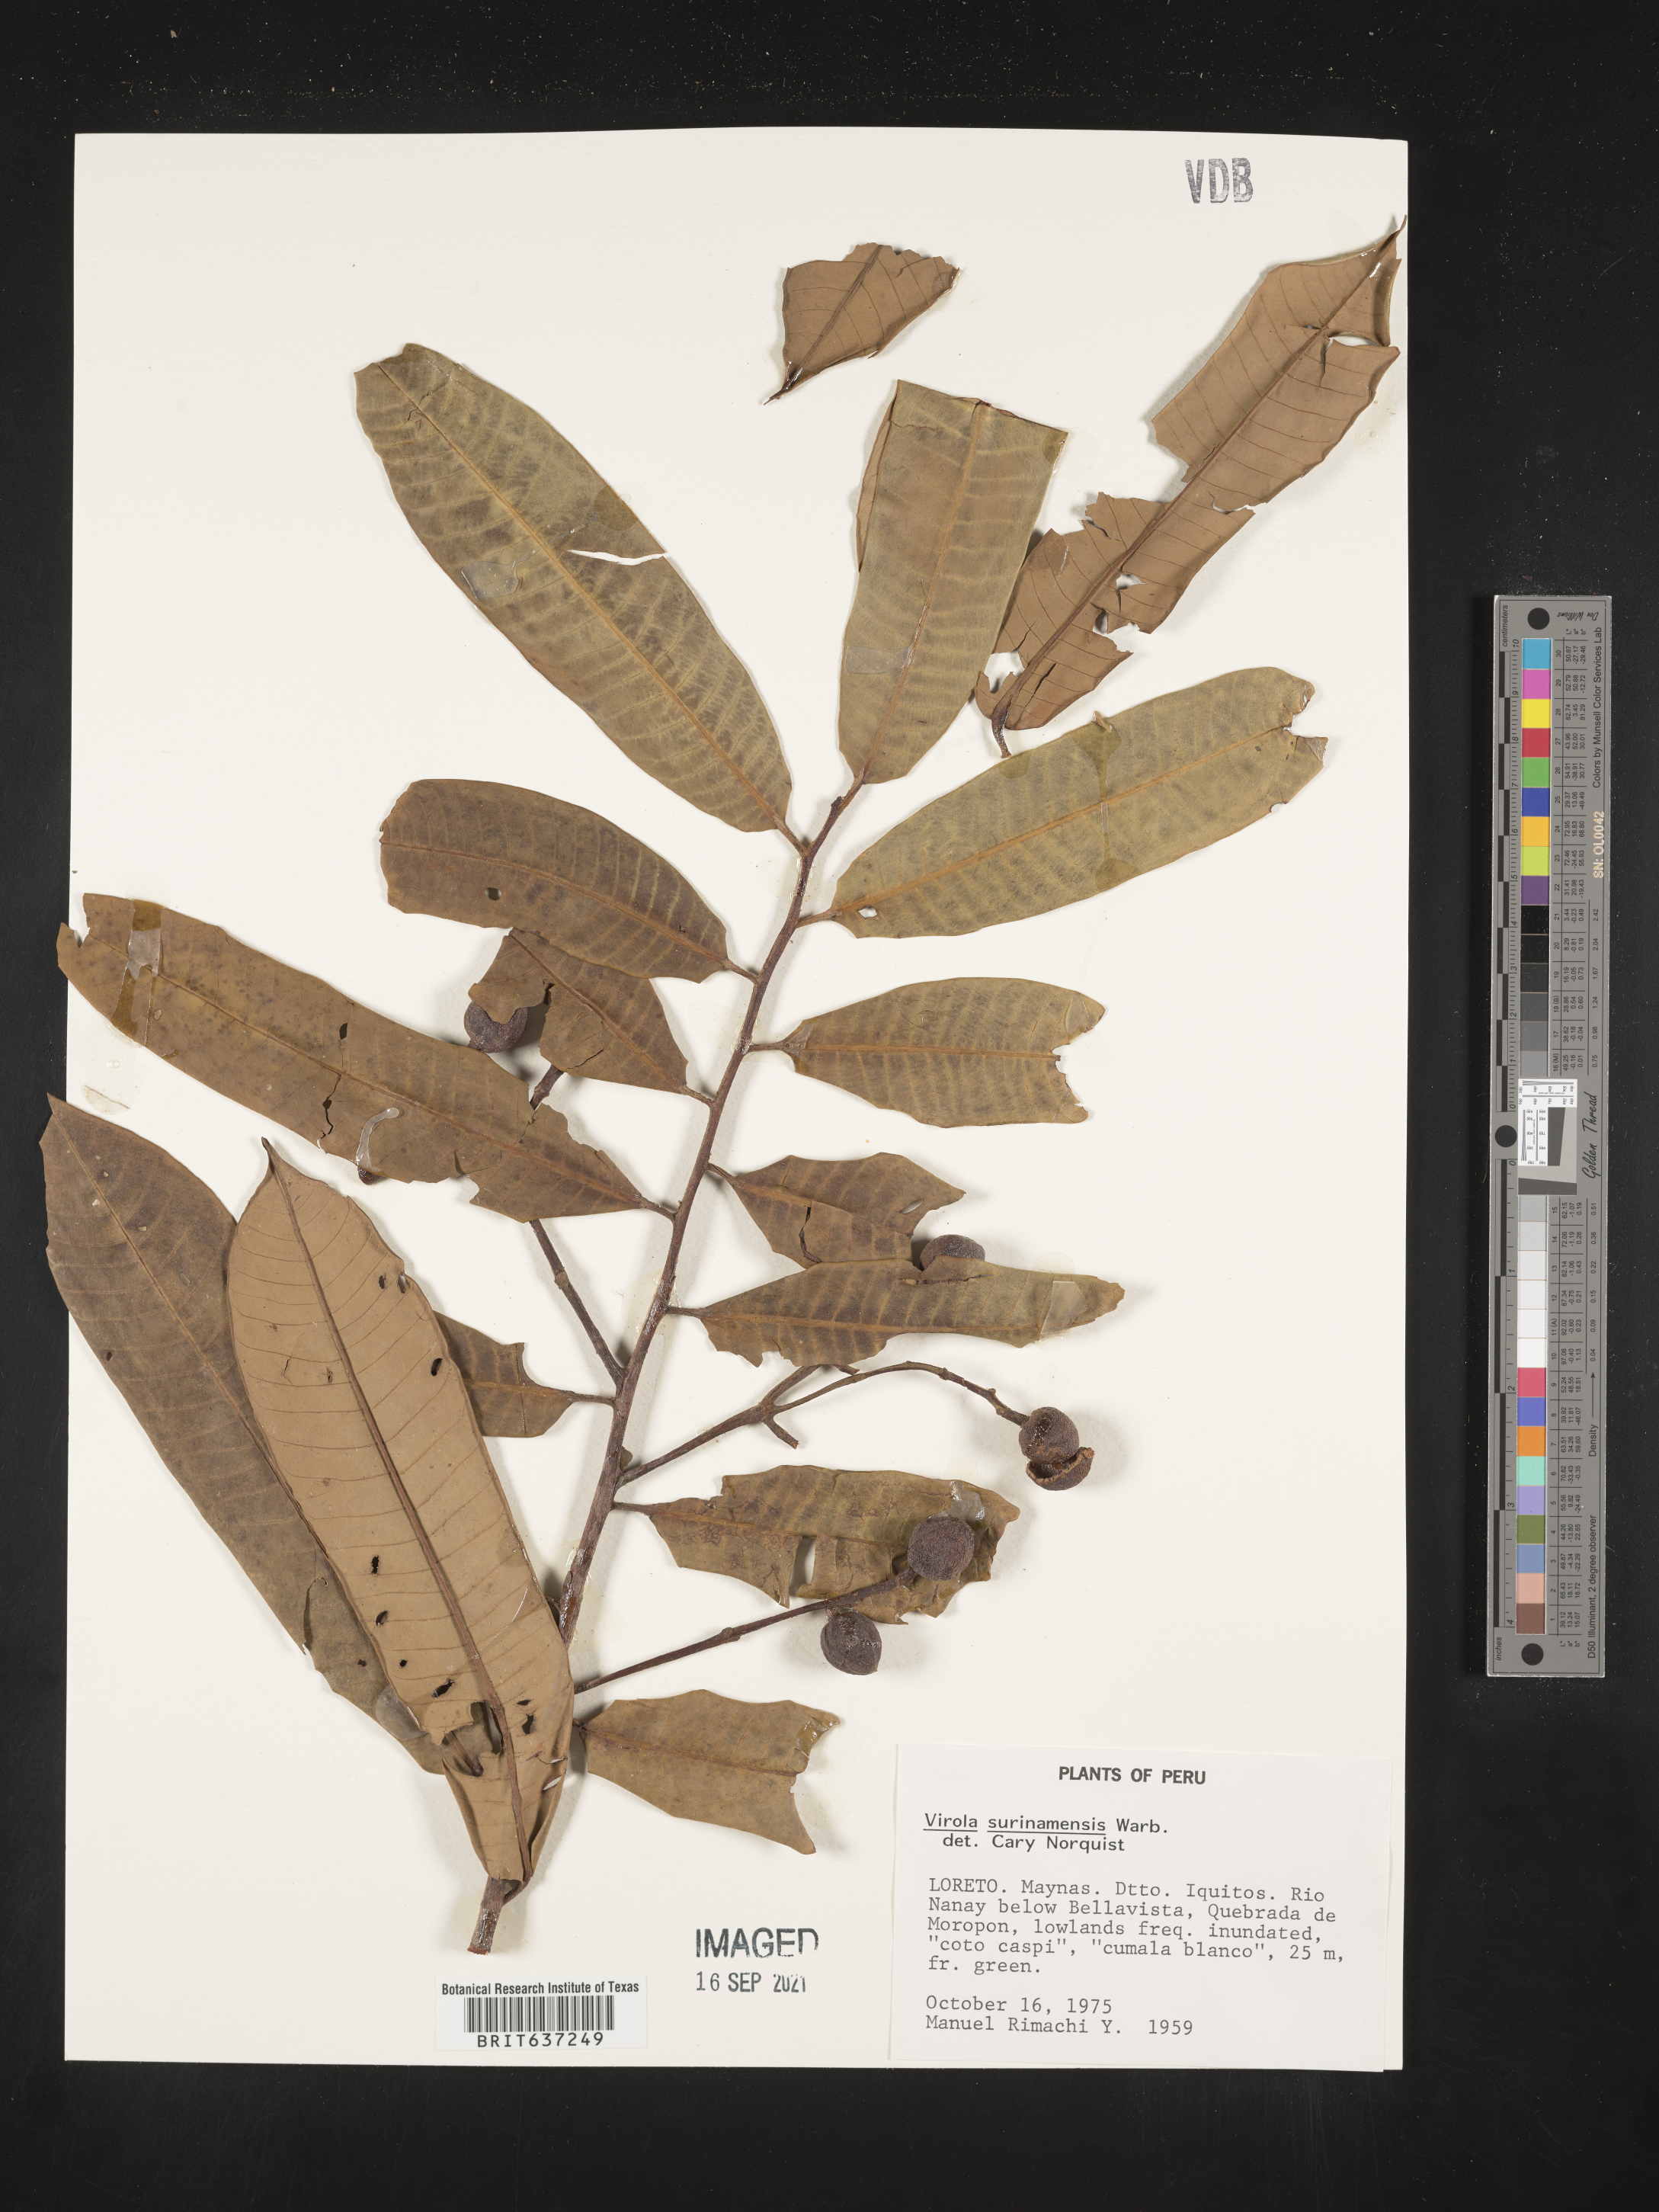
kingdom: Plantae
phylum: Tracheophyta
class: Magnoliopsida
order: Magnoliales
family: Myristicaceae
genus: Virola
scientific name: Virola
